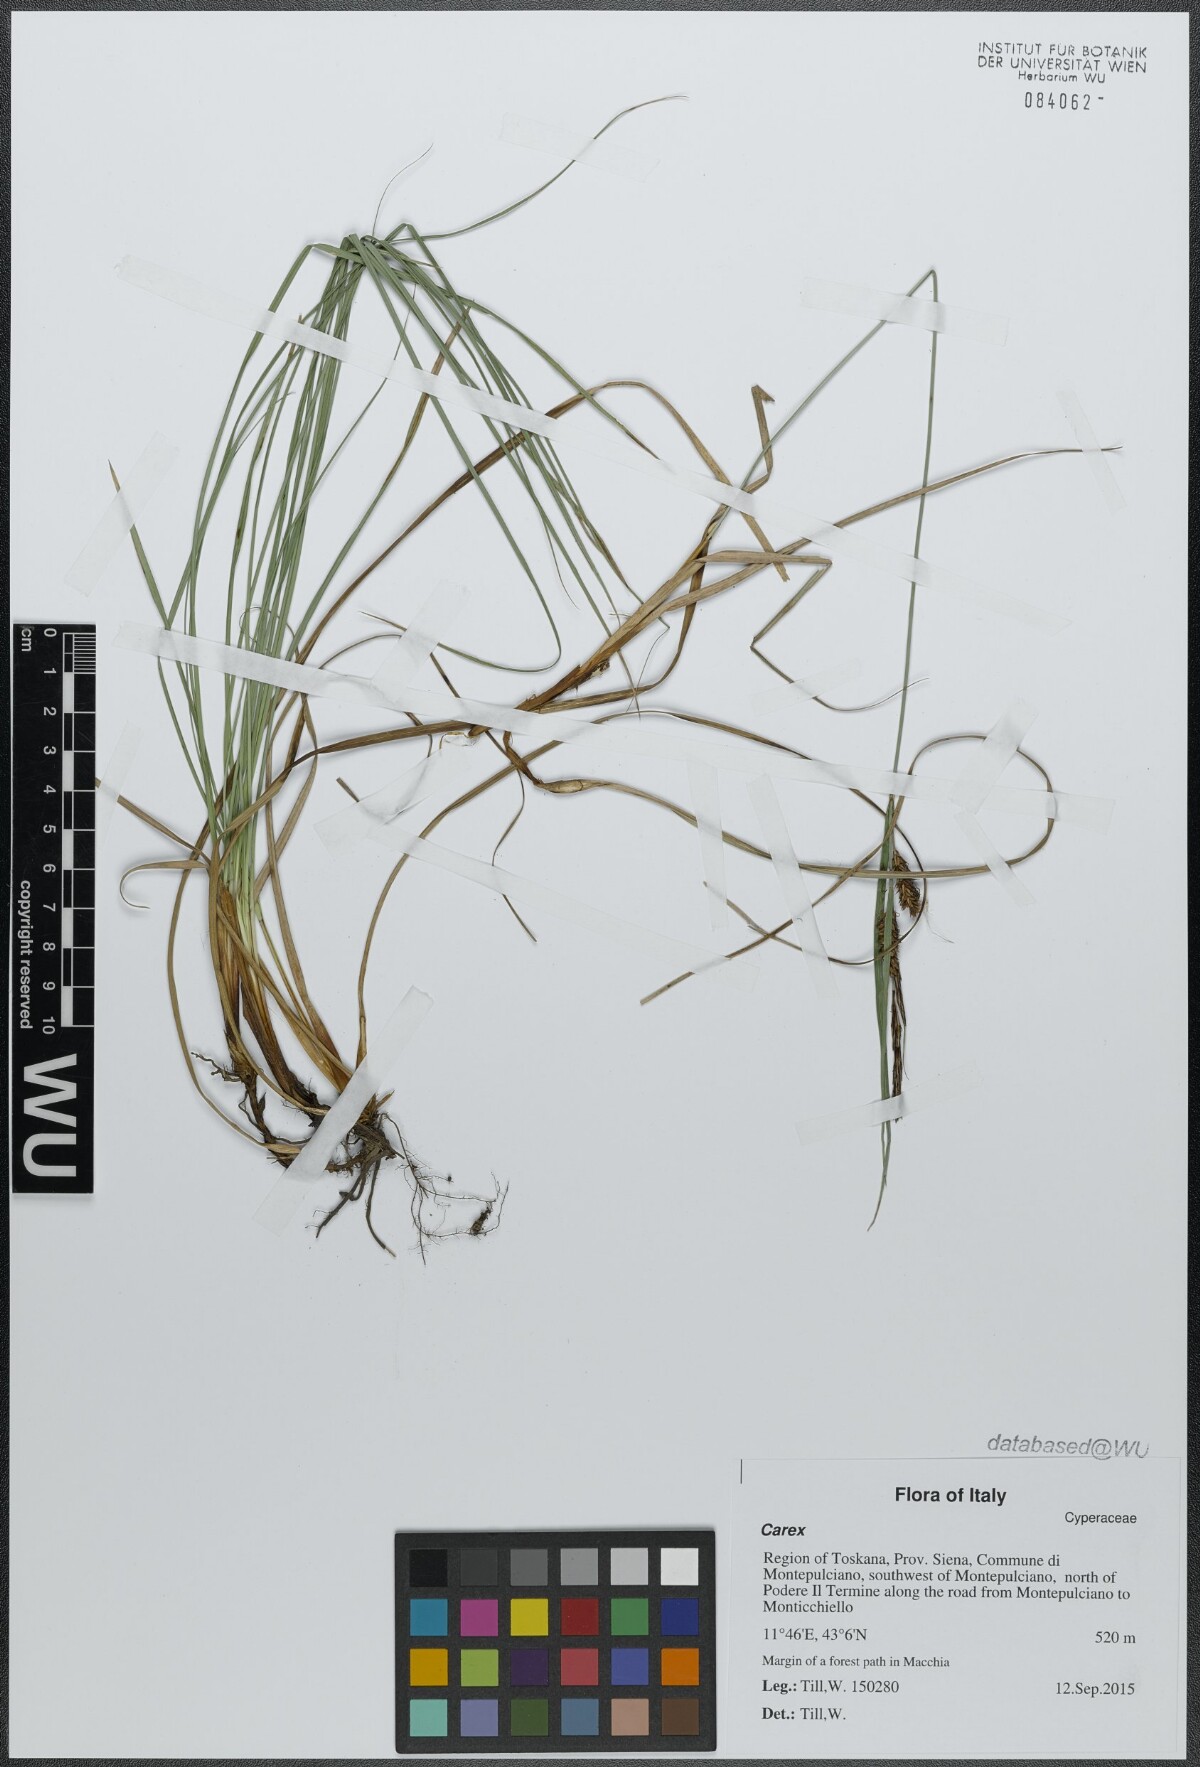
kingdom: Plantae
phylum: Tracheophyta
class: Liliopsida
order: Poales
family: Cyperaceae
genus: Carex
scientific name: Carex
